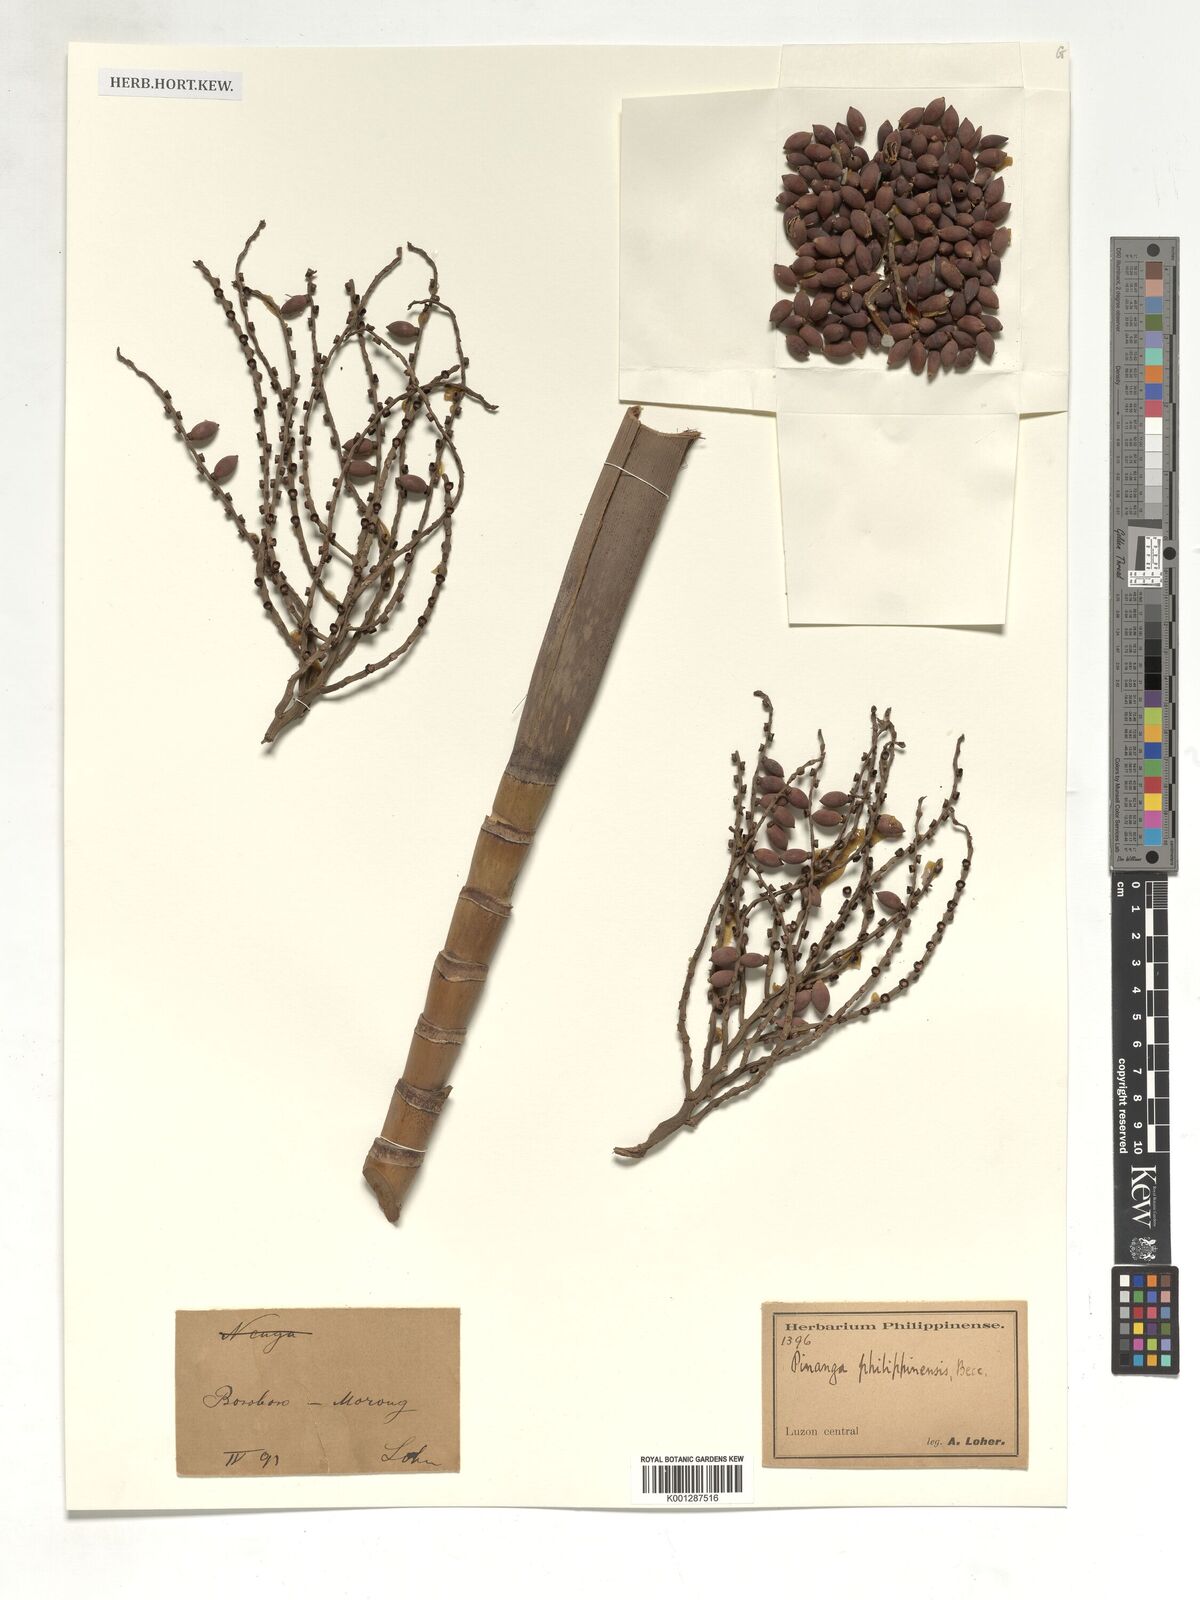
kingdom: Plantae
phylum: Tracheophyta
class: Liliopsida
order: Arecales
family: Arecaceae
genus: Pinanga
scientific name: Pinanga philippinensis
